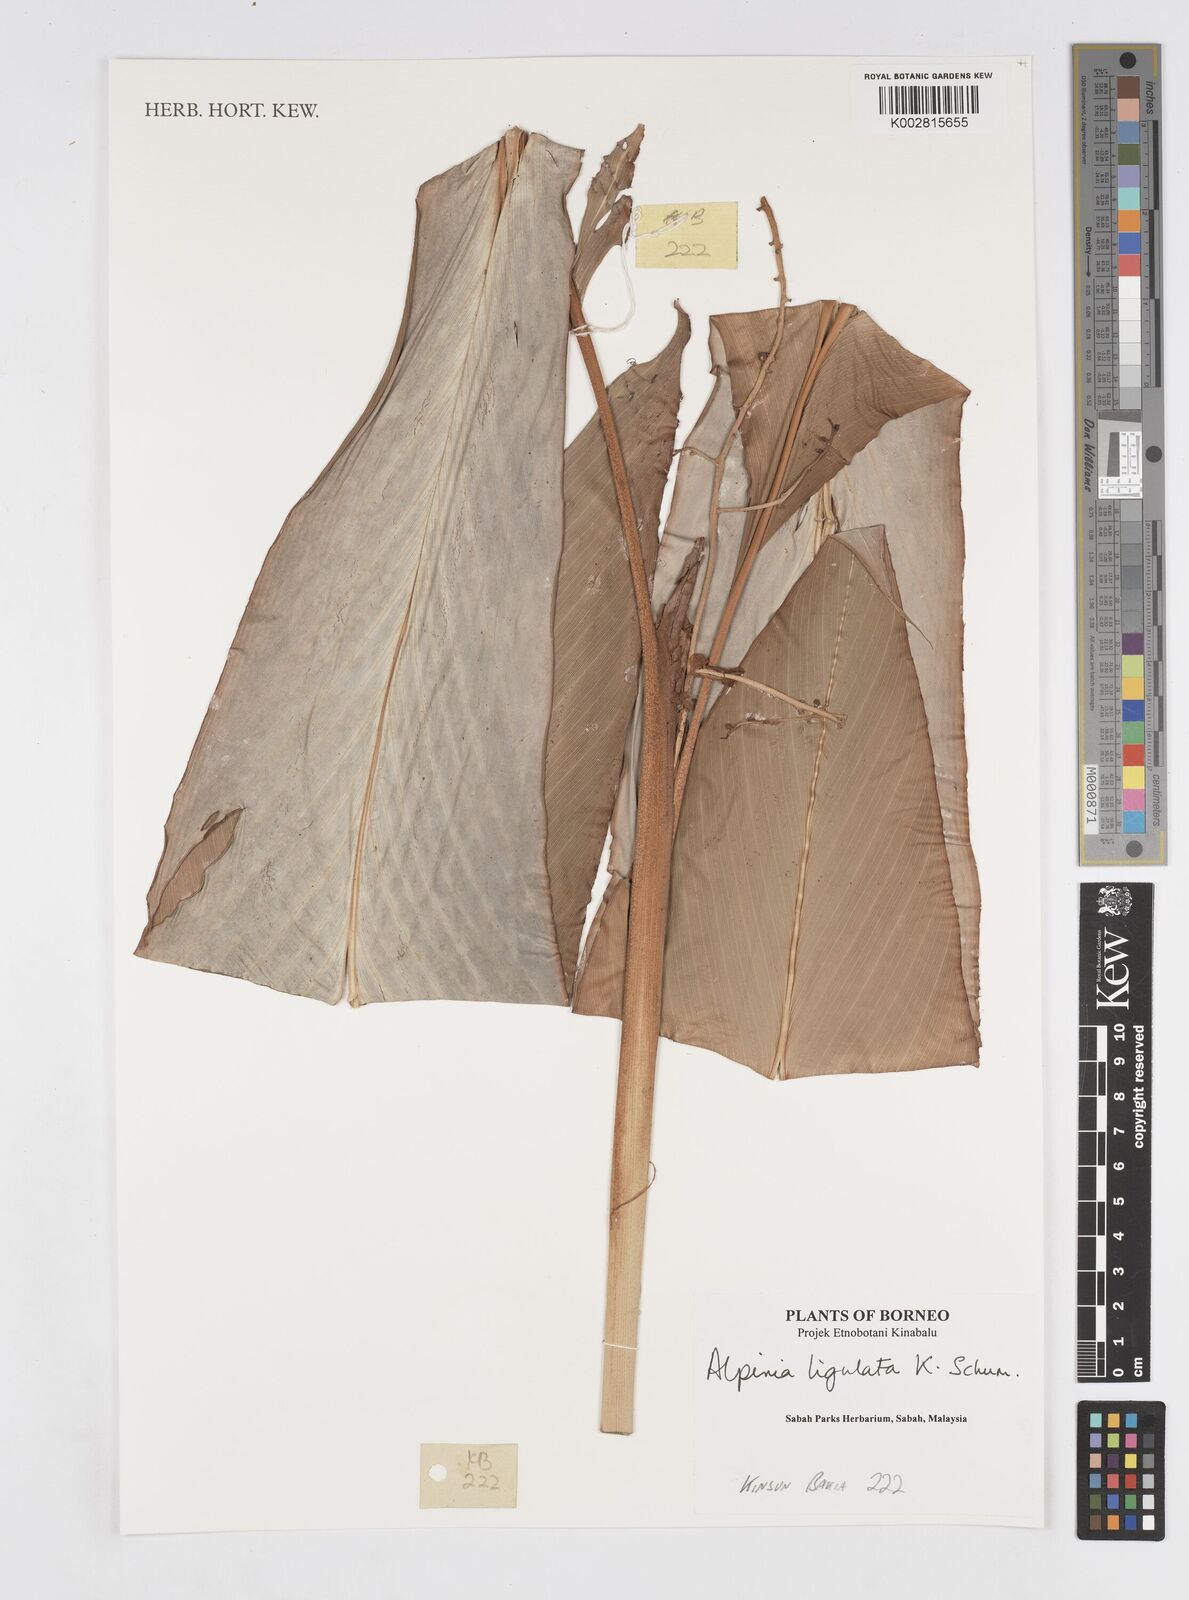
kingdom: Plantae
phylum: Tracheophyta
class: Liliopsida
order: Zingiberales
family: Zingiberaceae
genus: Alpinia
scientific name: Alpinia ligulata
